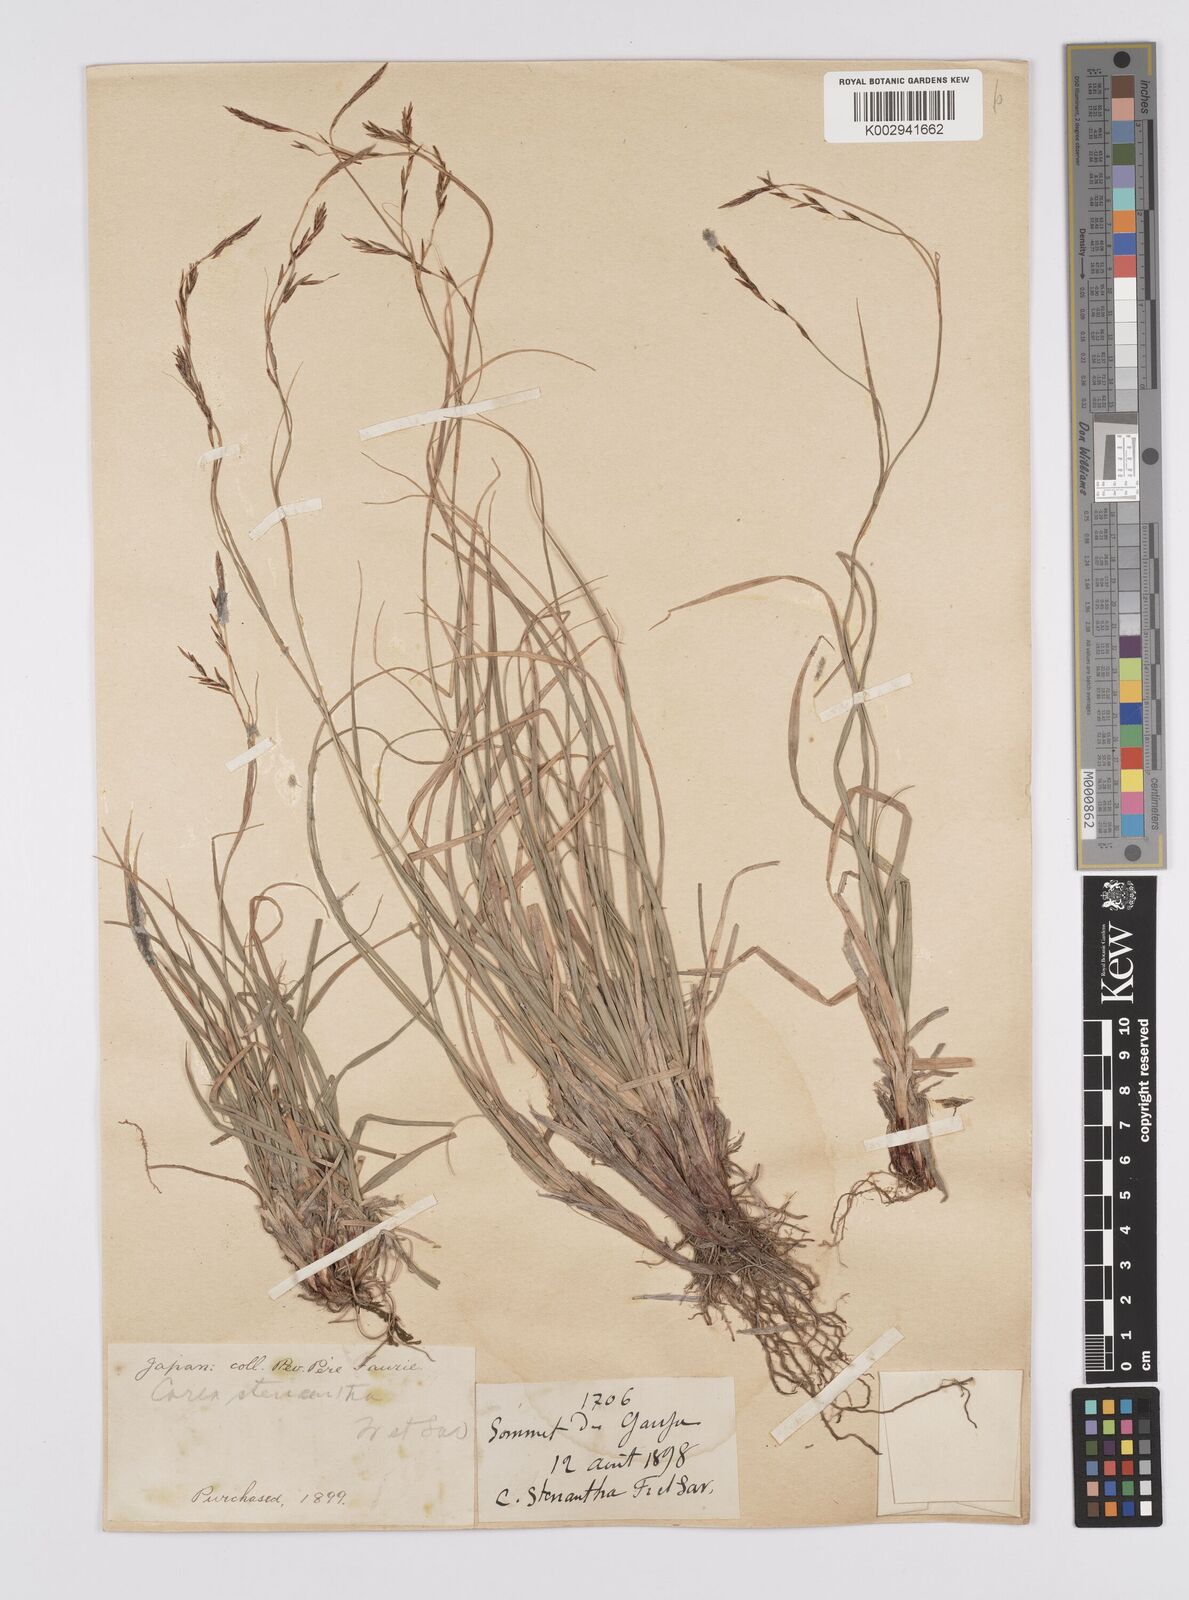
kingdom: Plantae
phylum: Tracheophyta
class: Liliopsida
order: Poales
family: Cyperaceae
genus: Carex
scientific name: Carex stenantha
